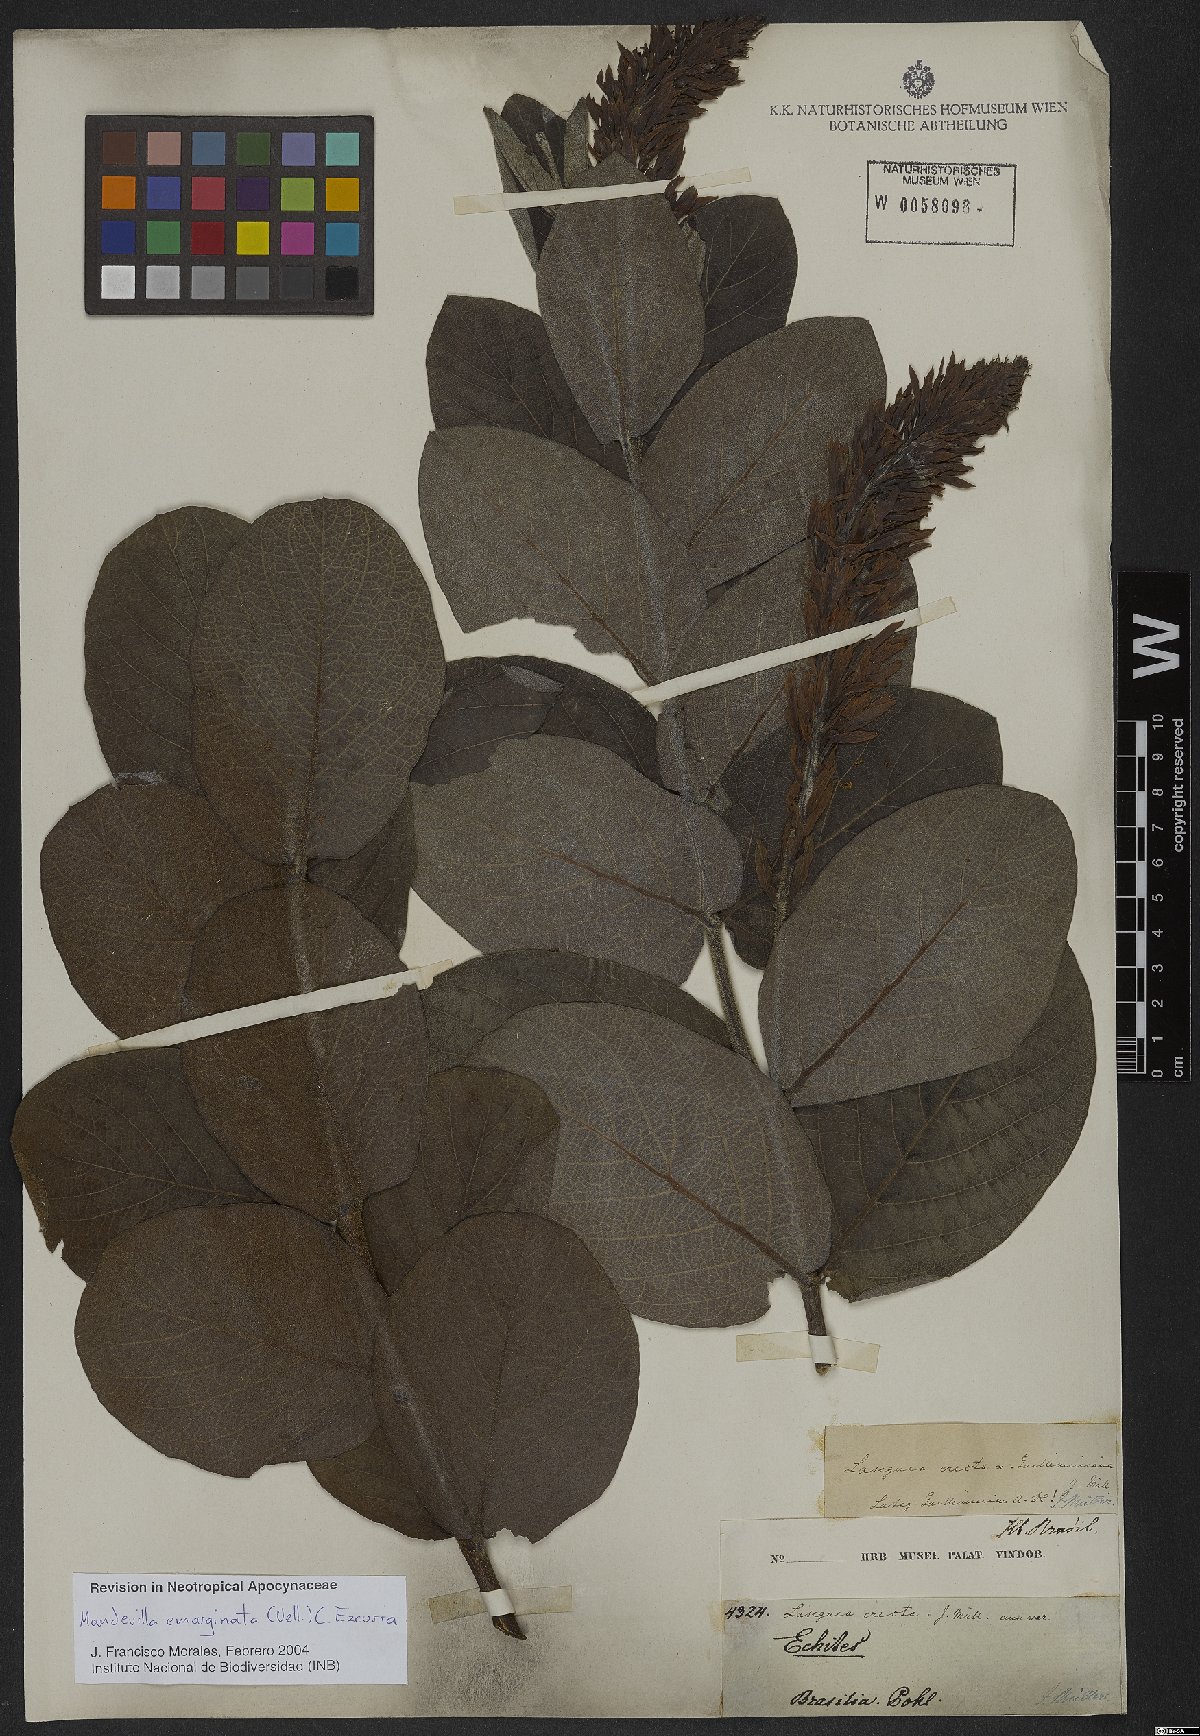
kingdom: Plantae
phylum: Tracheophyta
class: Magnoliopsida
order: Gentianales
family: Apocynaceae
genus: Mandevilla
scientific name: Mandevilla emarginata
